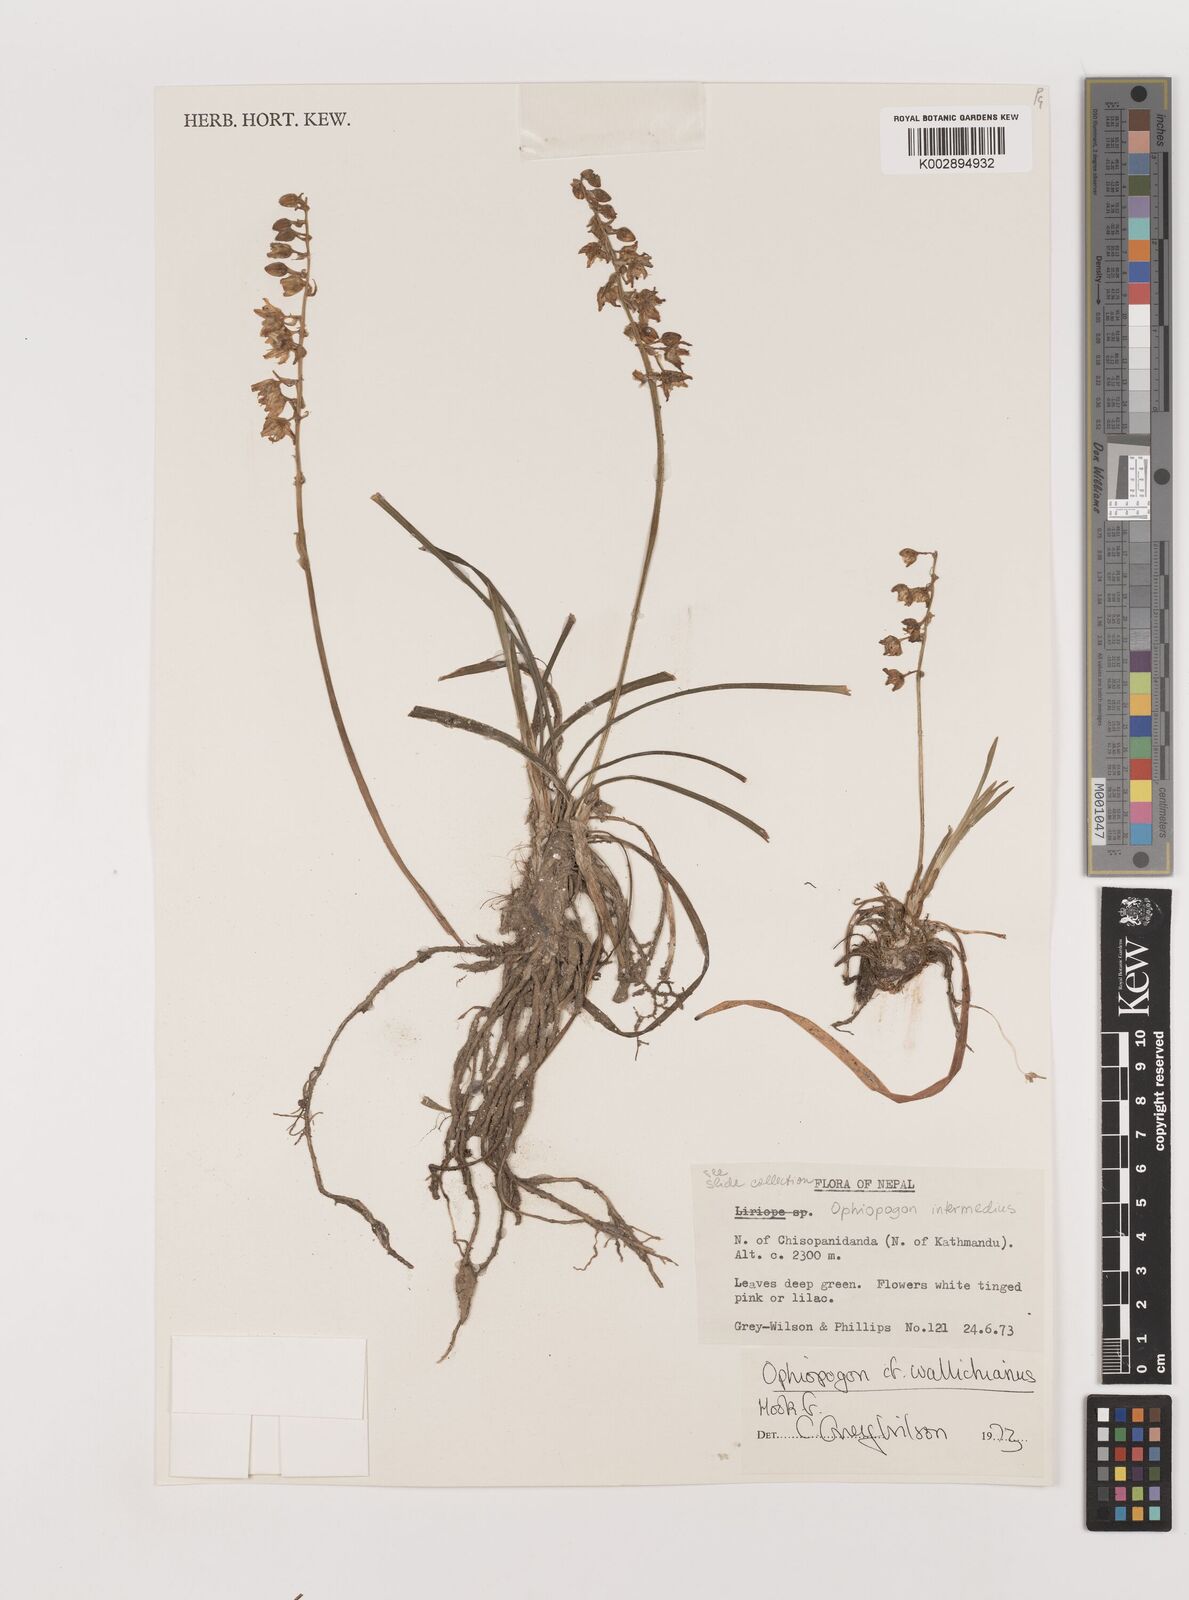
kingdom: Plantae
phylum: Tracheophyta
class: Liliopsida
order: Asparagales
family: Asparagaceae
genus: Ophiopogon
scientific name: Ophiopogon intermedius
